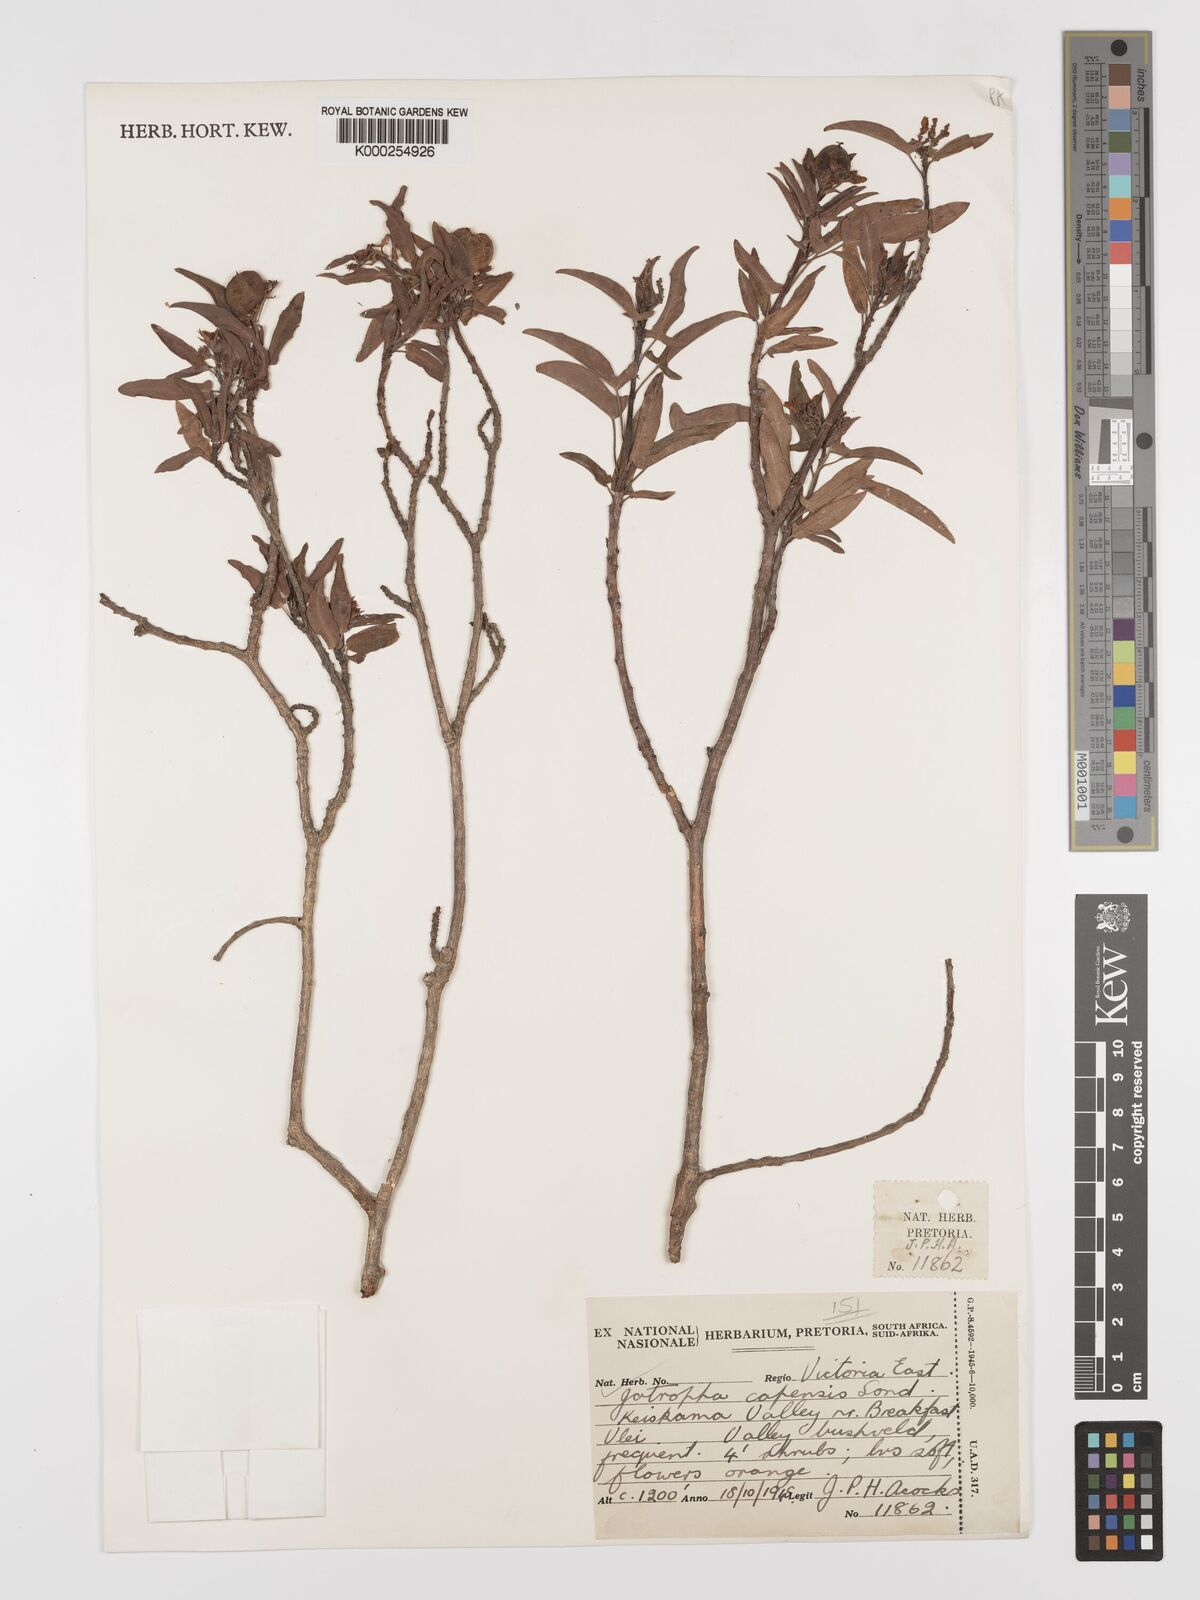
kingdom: Plantae
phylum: Tracheophyta
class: Magnoliopsida
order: Malpighiales
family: Euphorbiaceae
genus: Jatropha
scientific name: Jatropha capensis
